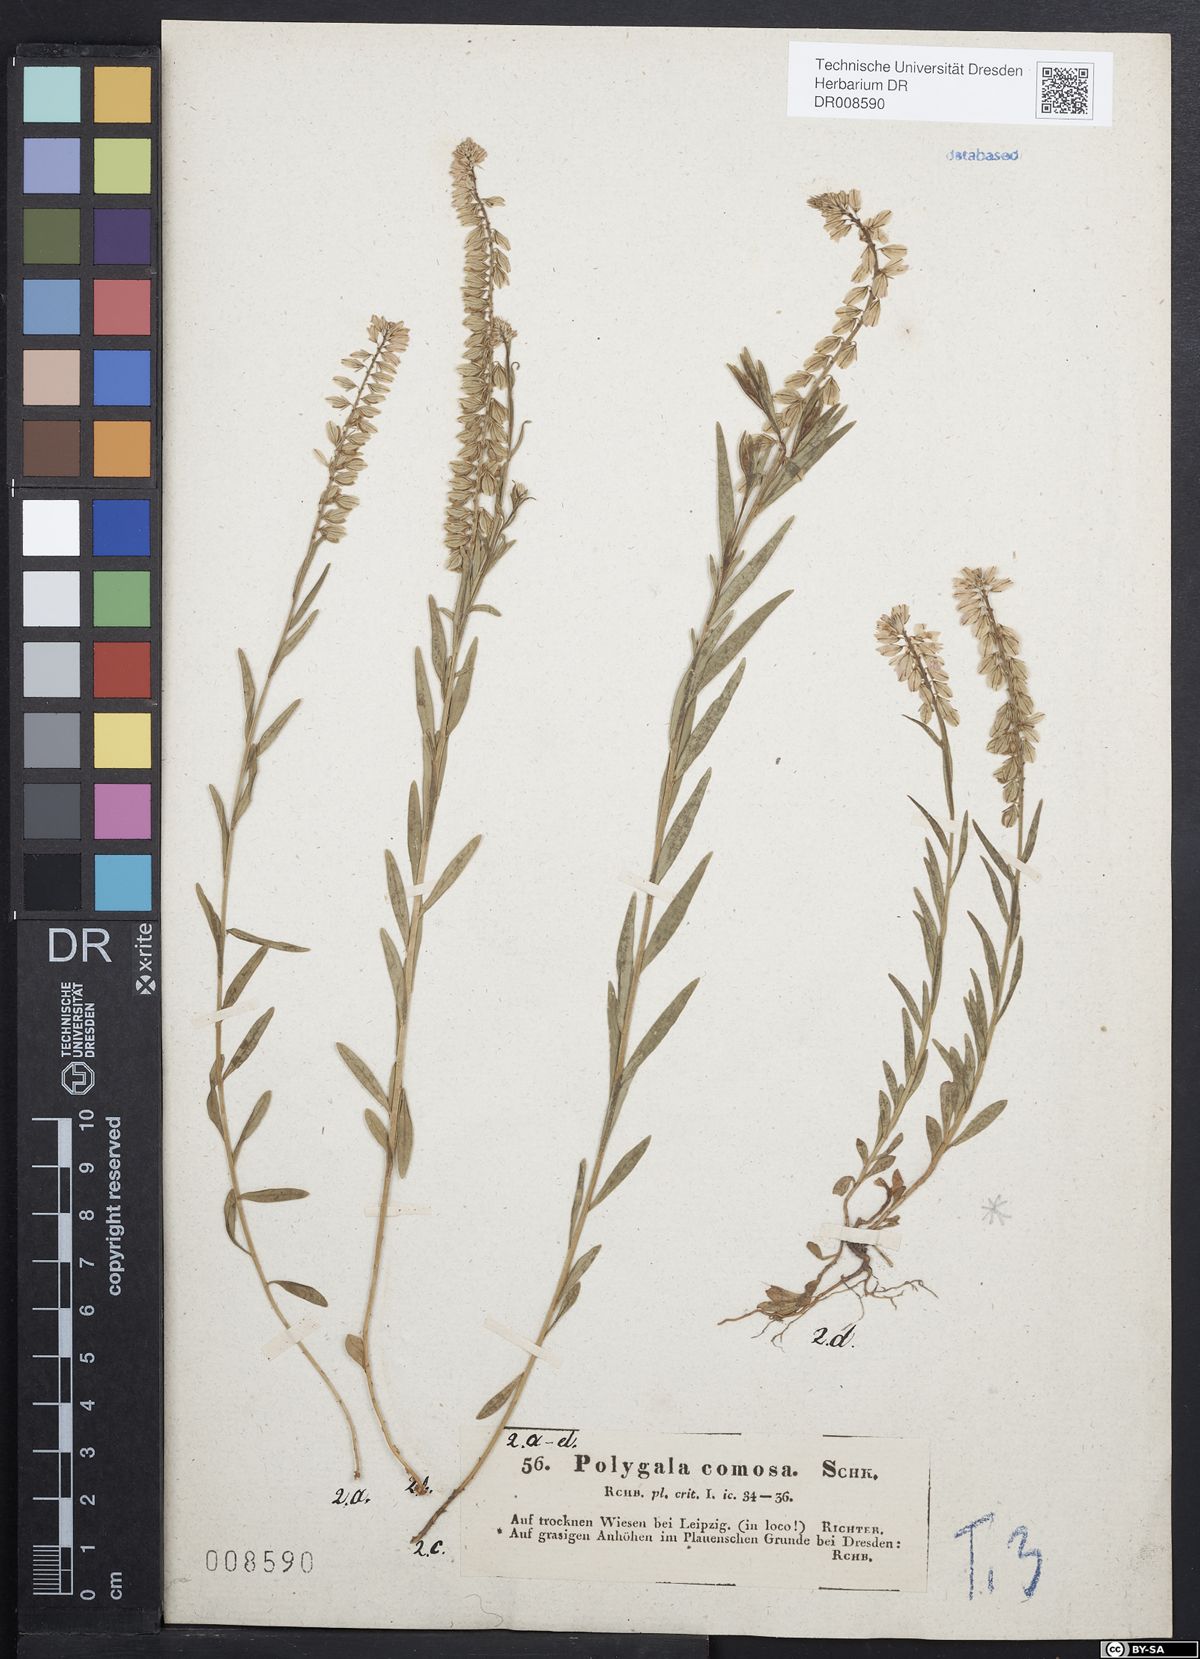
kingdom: Plantae
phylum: Tracheophyta
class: Magnoliopsida
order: Fabales
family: Polygalaceae
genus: Polygala
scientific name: Polygala comosa
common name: Tufted milkwort
